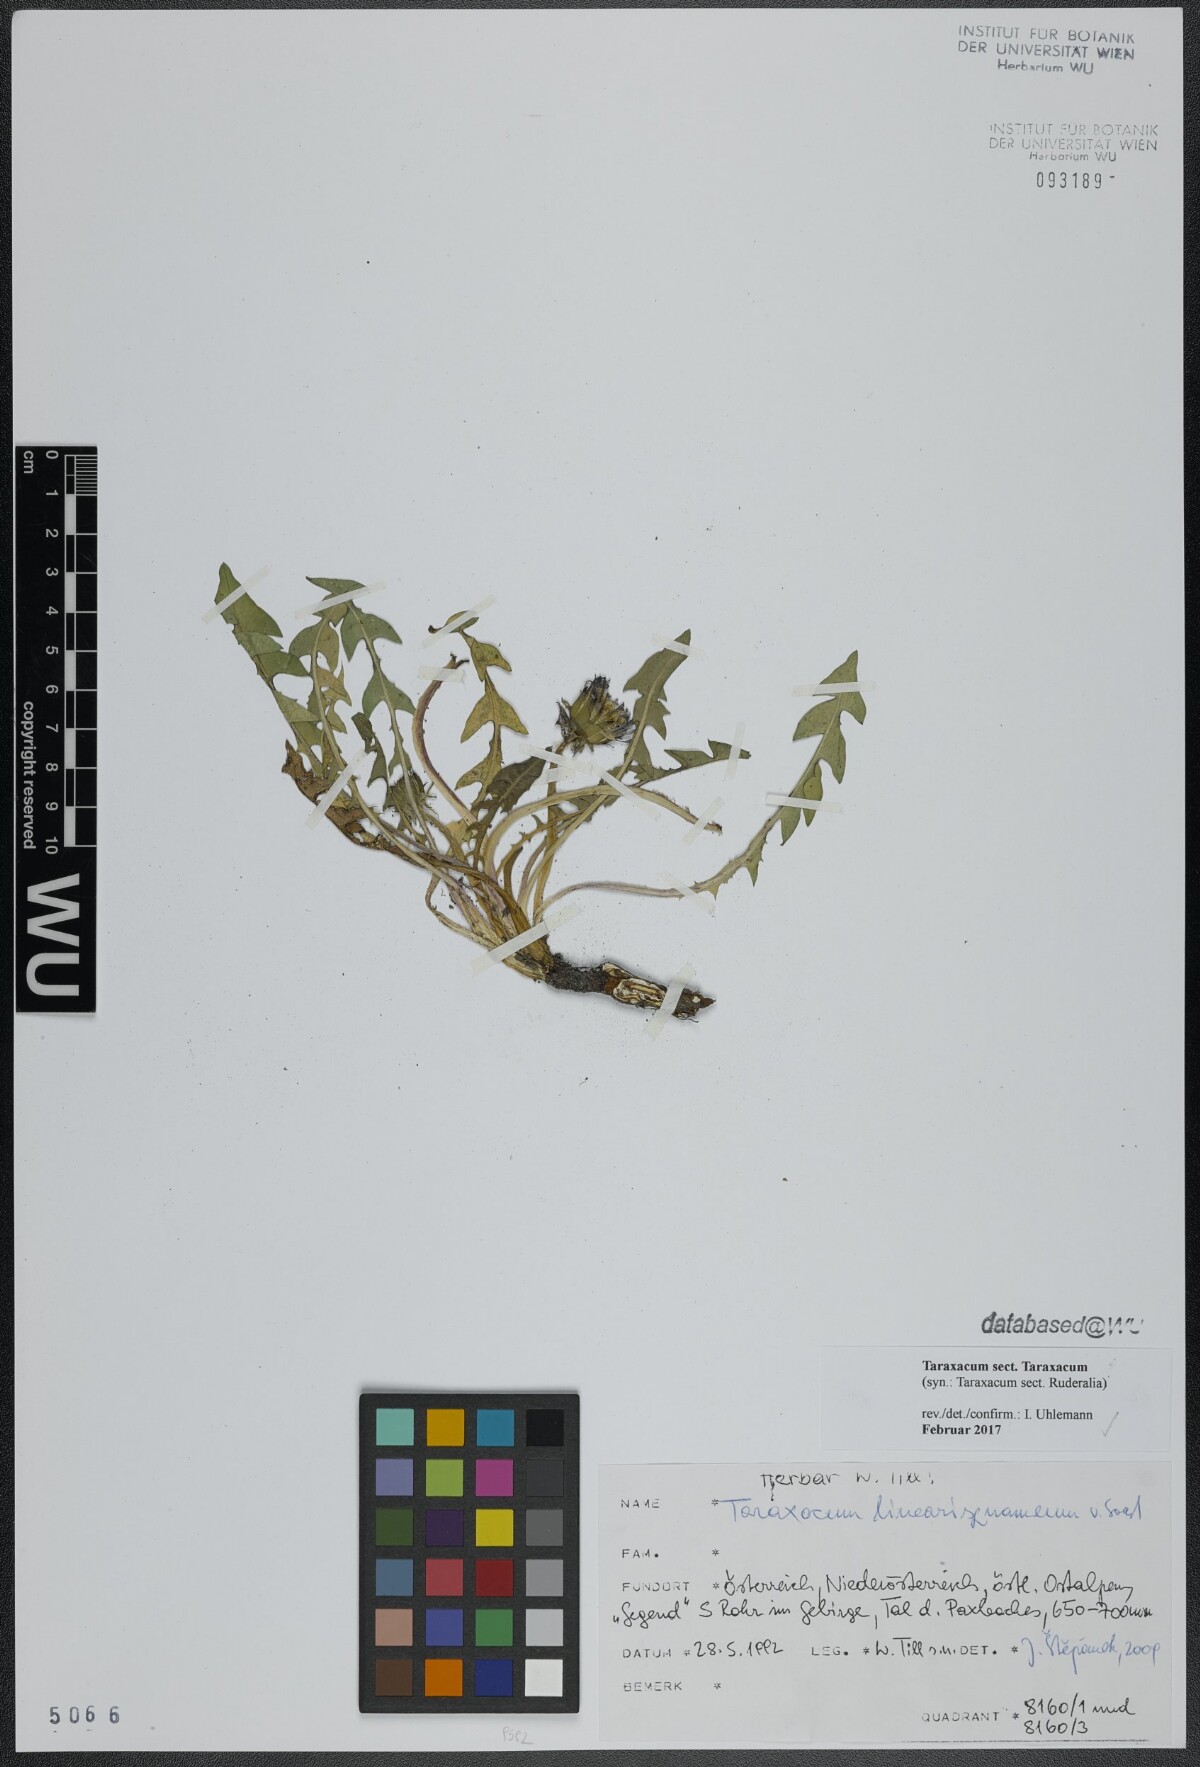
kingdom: Plantae
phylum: Tracheophyta
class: Magnoliopsida
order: Asterales
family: Asteraceae
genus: Taraxacum
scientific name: Taraxacum
